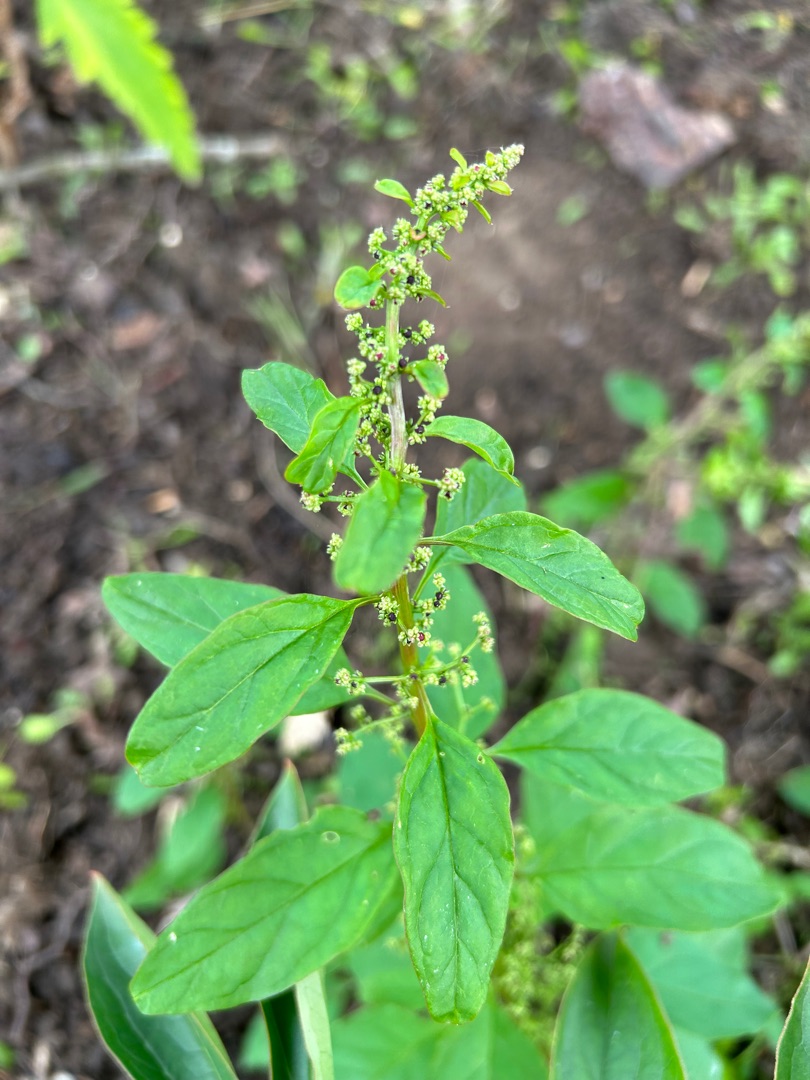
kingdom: Plantae
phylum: Tracheophyta
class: Magnoliopsida
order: Caryophyllales
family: Amaranthaceae
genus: Lipandra
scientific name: Lipandra polysperma
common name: Mangefrøet gåsefod
